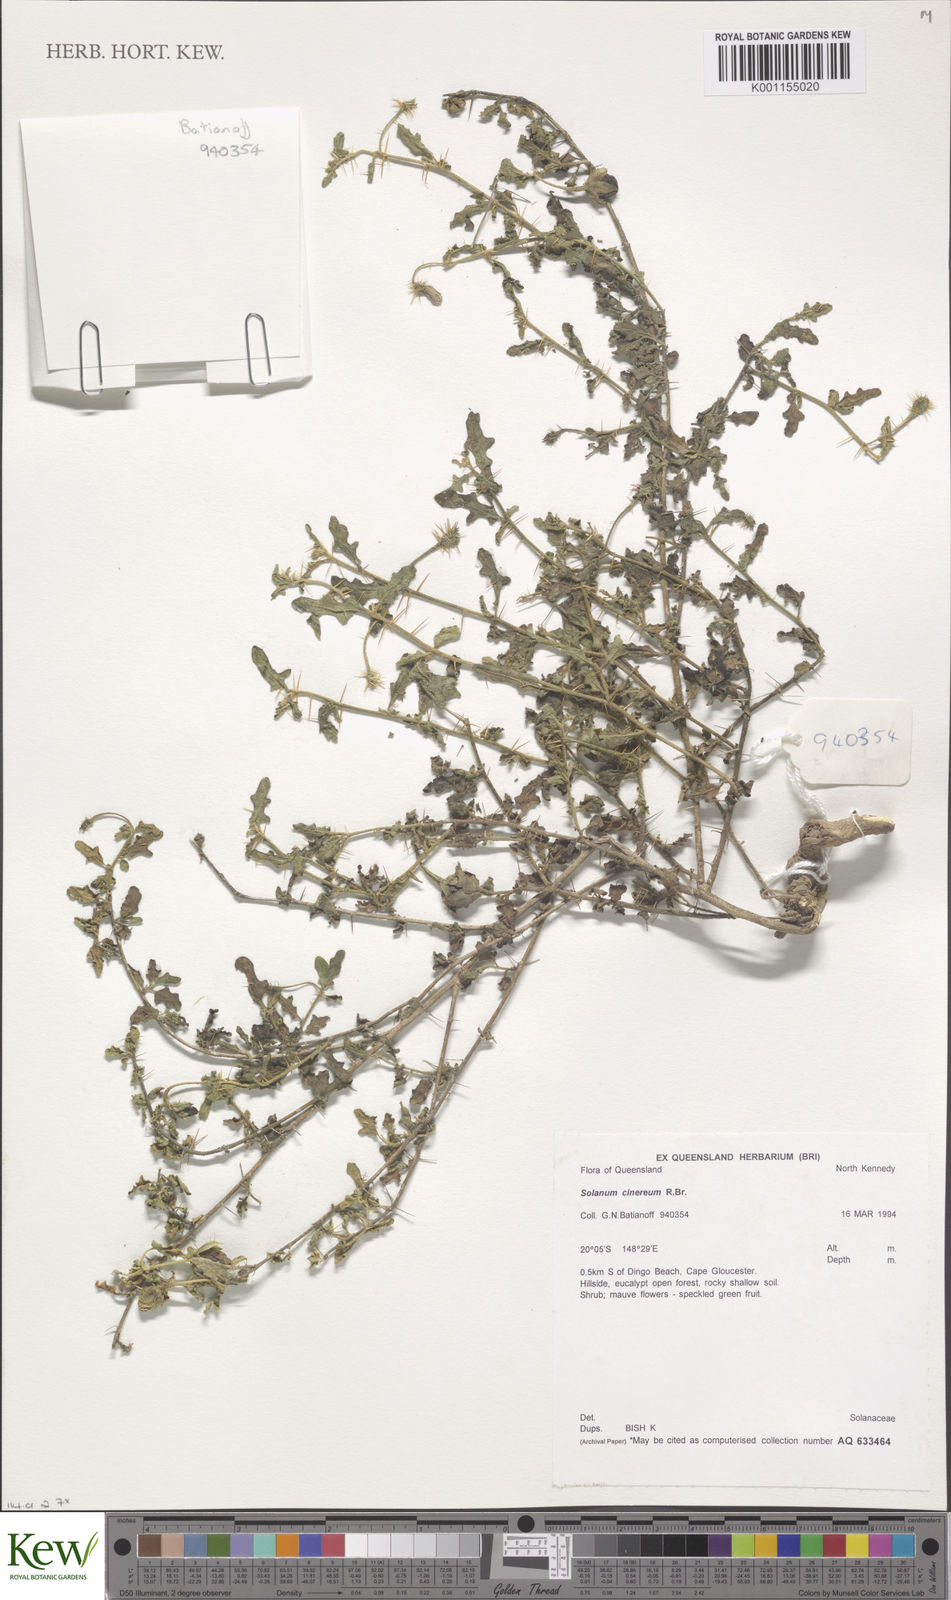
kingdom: Plantae
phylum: Tracheophyta
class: Magnoliopsida
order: Solanales
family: Solanaceae
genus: Solanum
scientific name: Solanum cinereum
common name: Narrawa-bur
